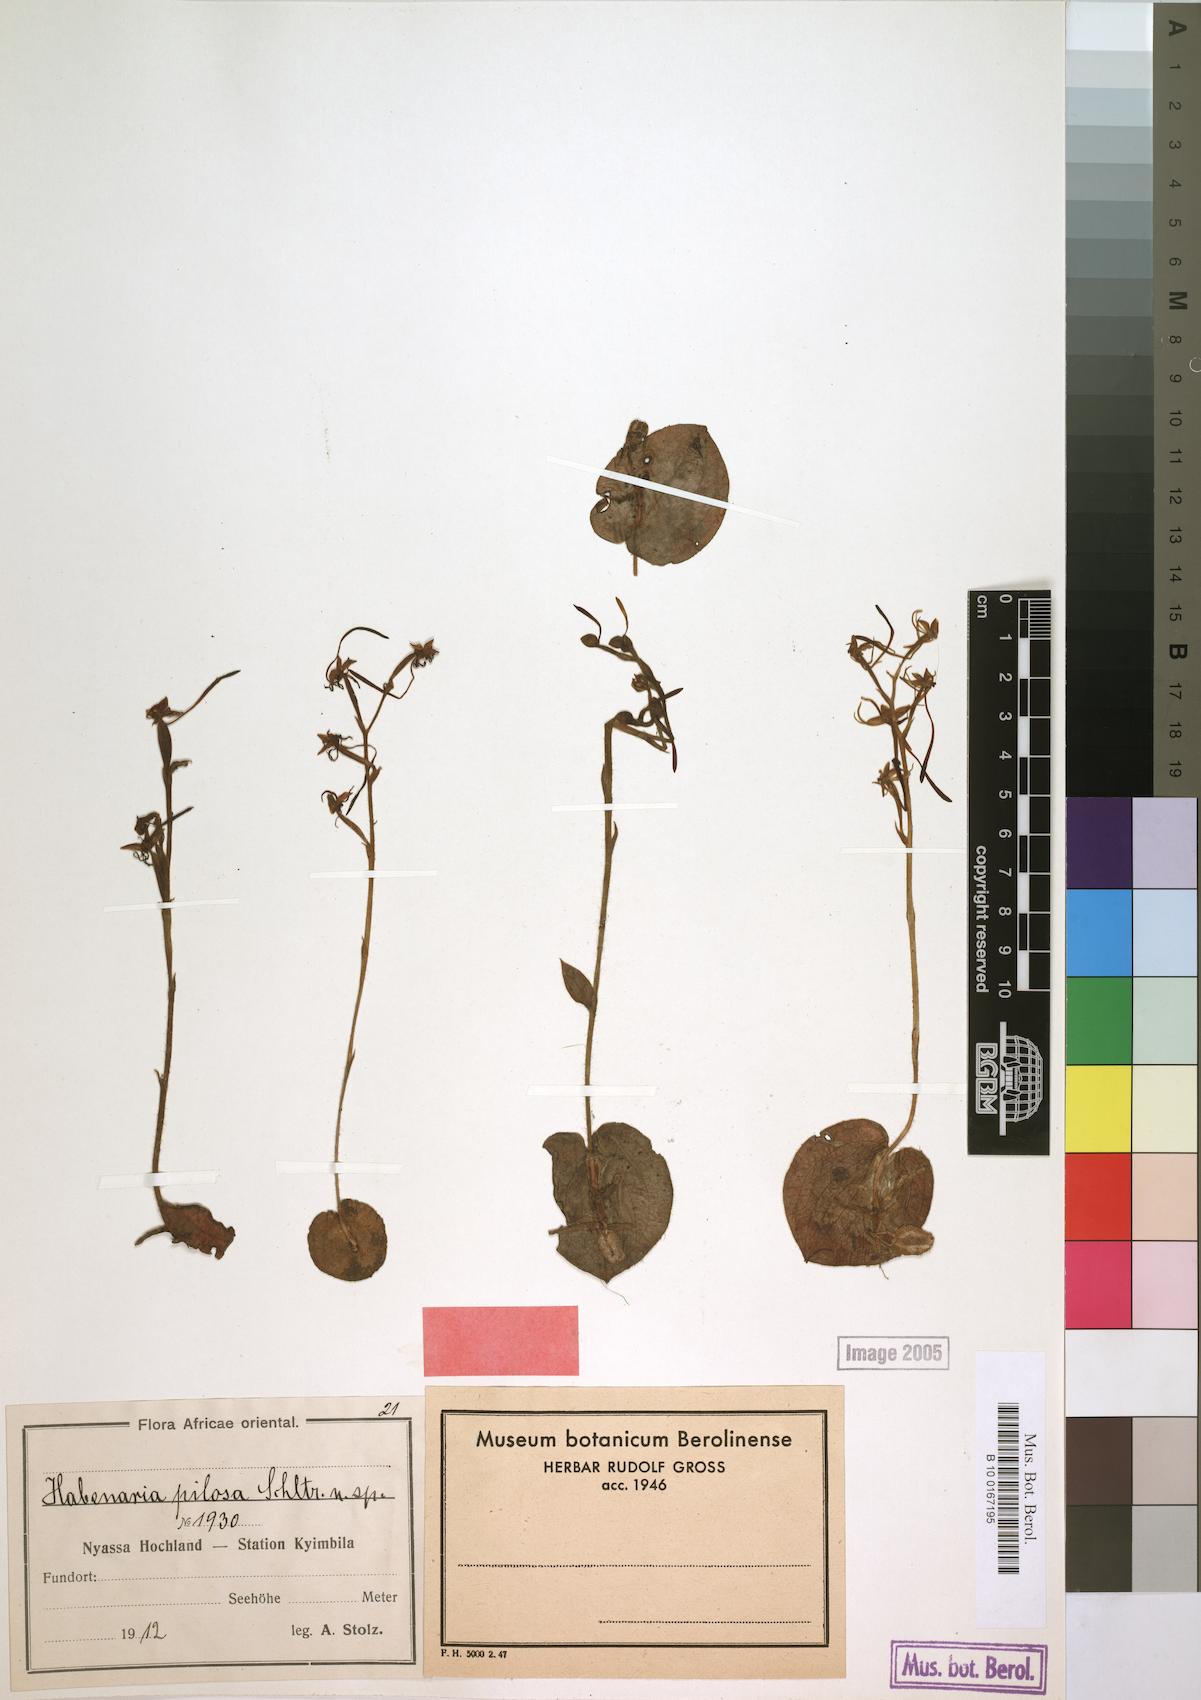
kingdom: Plantae
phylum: Tracheophyta
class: Liliopsida
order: Asparagales
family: Orchidaceae
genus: Habenaria
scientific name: Habenaria pilosa
